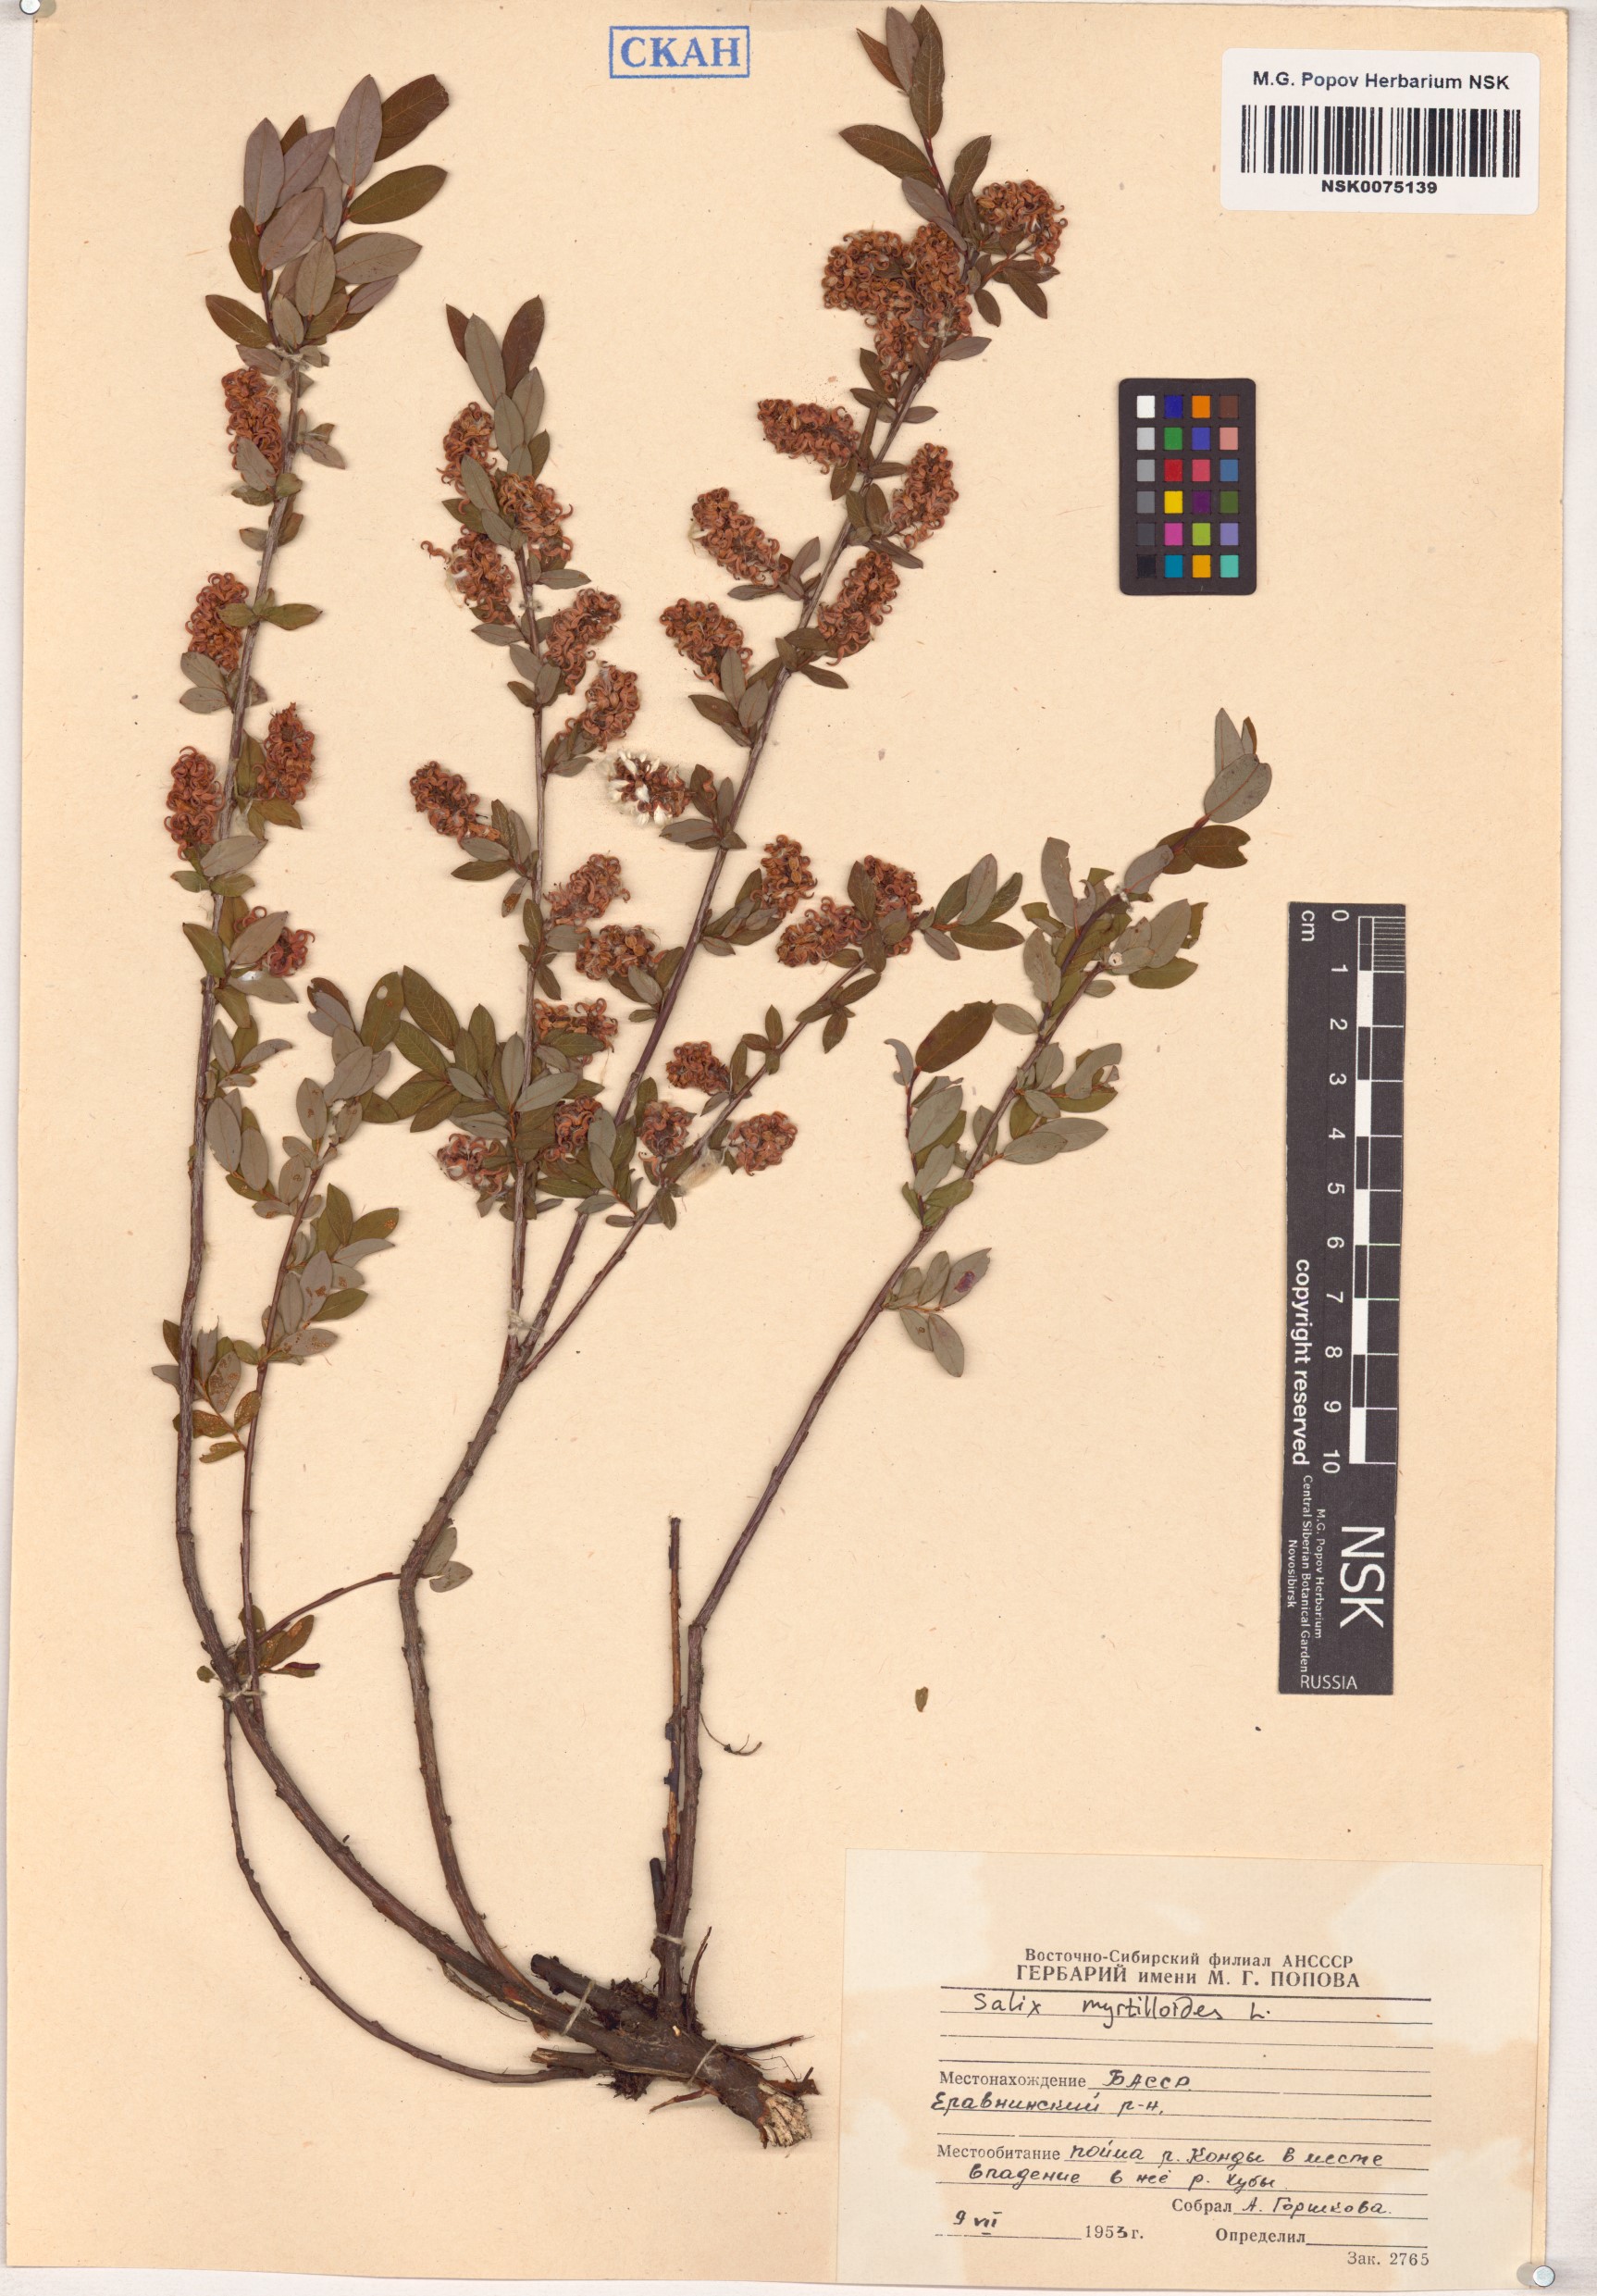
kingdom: Plantae
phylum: Tracheophyta
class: Magnoliopsida
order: Malpighiales
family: Salicaceae
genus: Salix
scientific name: Salix myrtilloides
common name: Myrtle-leaved willow
